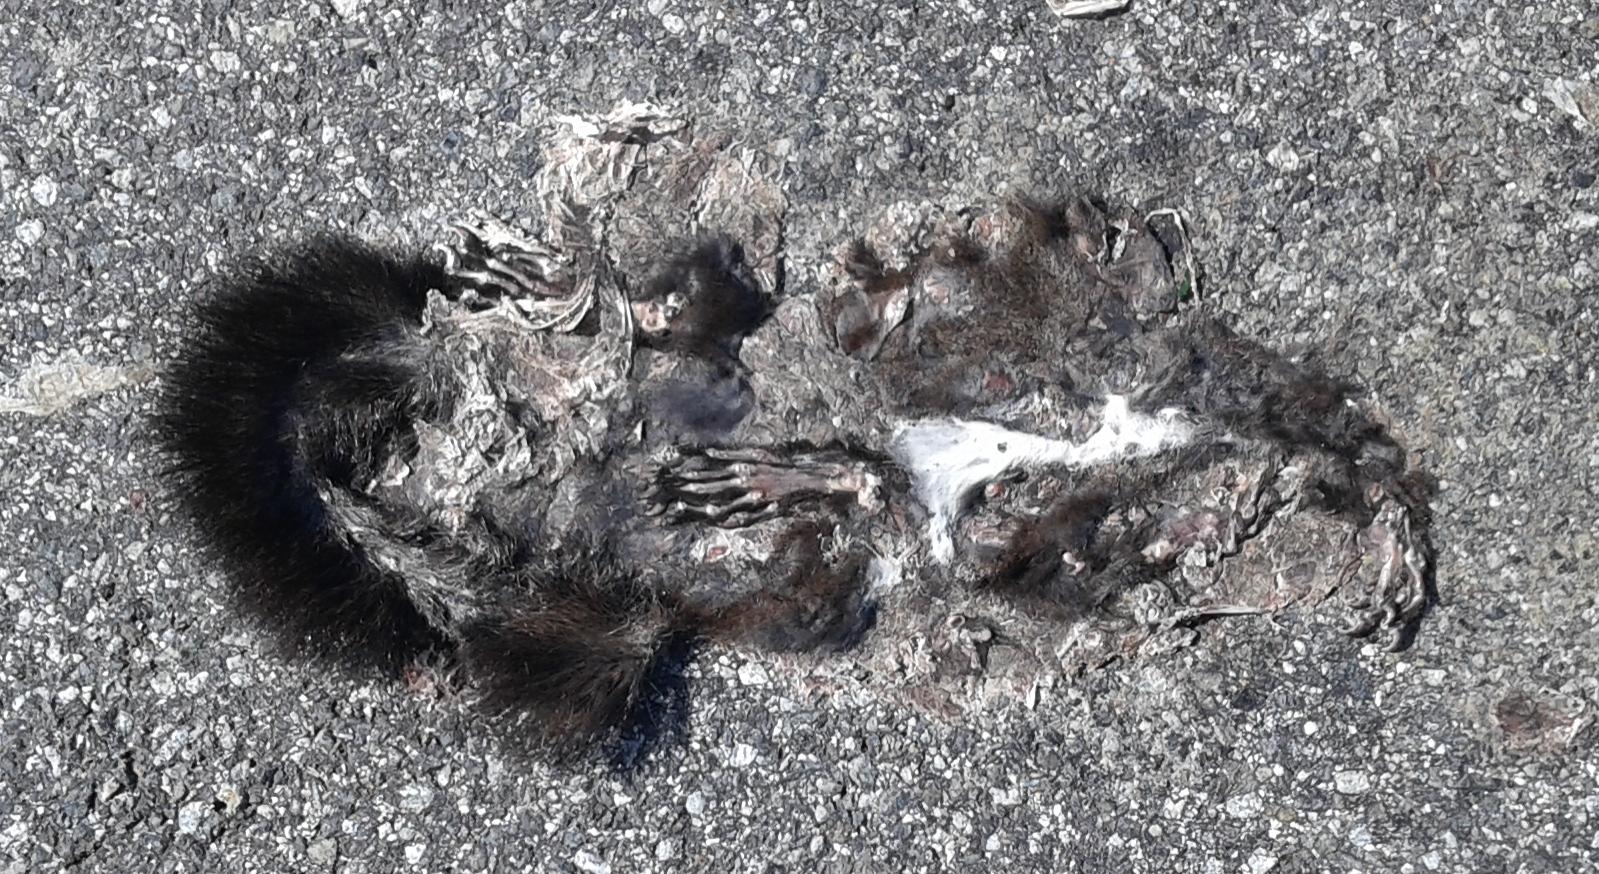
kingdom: Animalia
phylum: Chordata
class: Mammalia
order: Rodentia
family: Sciuridae
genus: Sciurus
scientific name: Sciurus vulgaris
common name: Eurasian red squirrel
